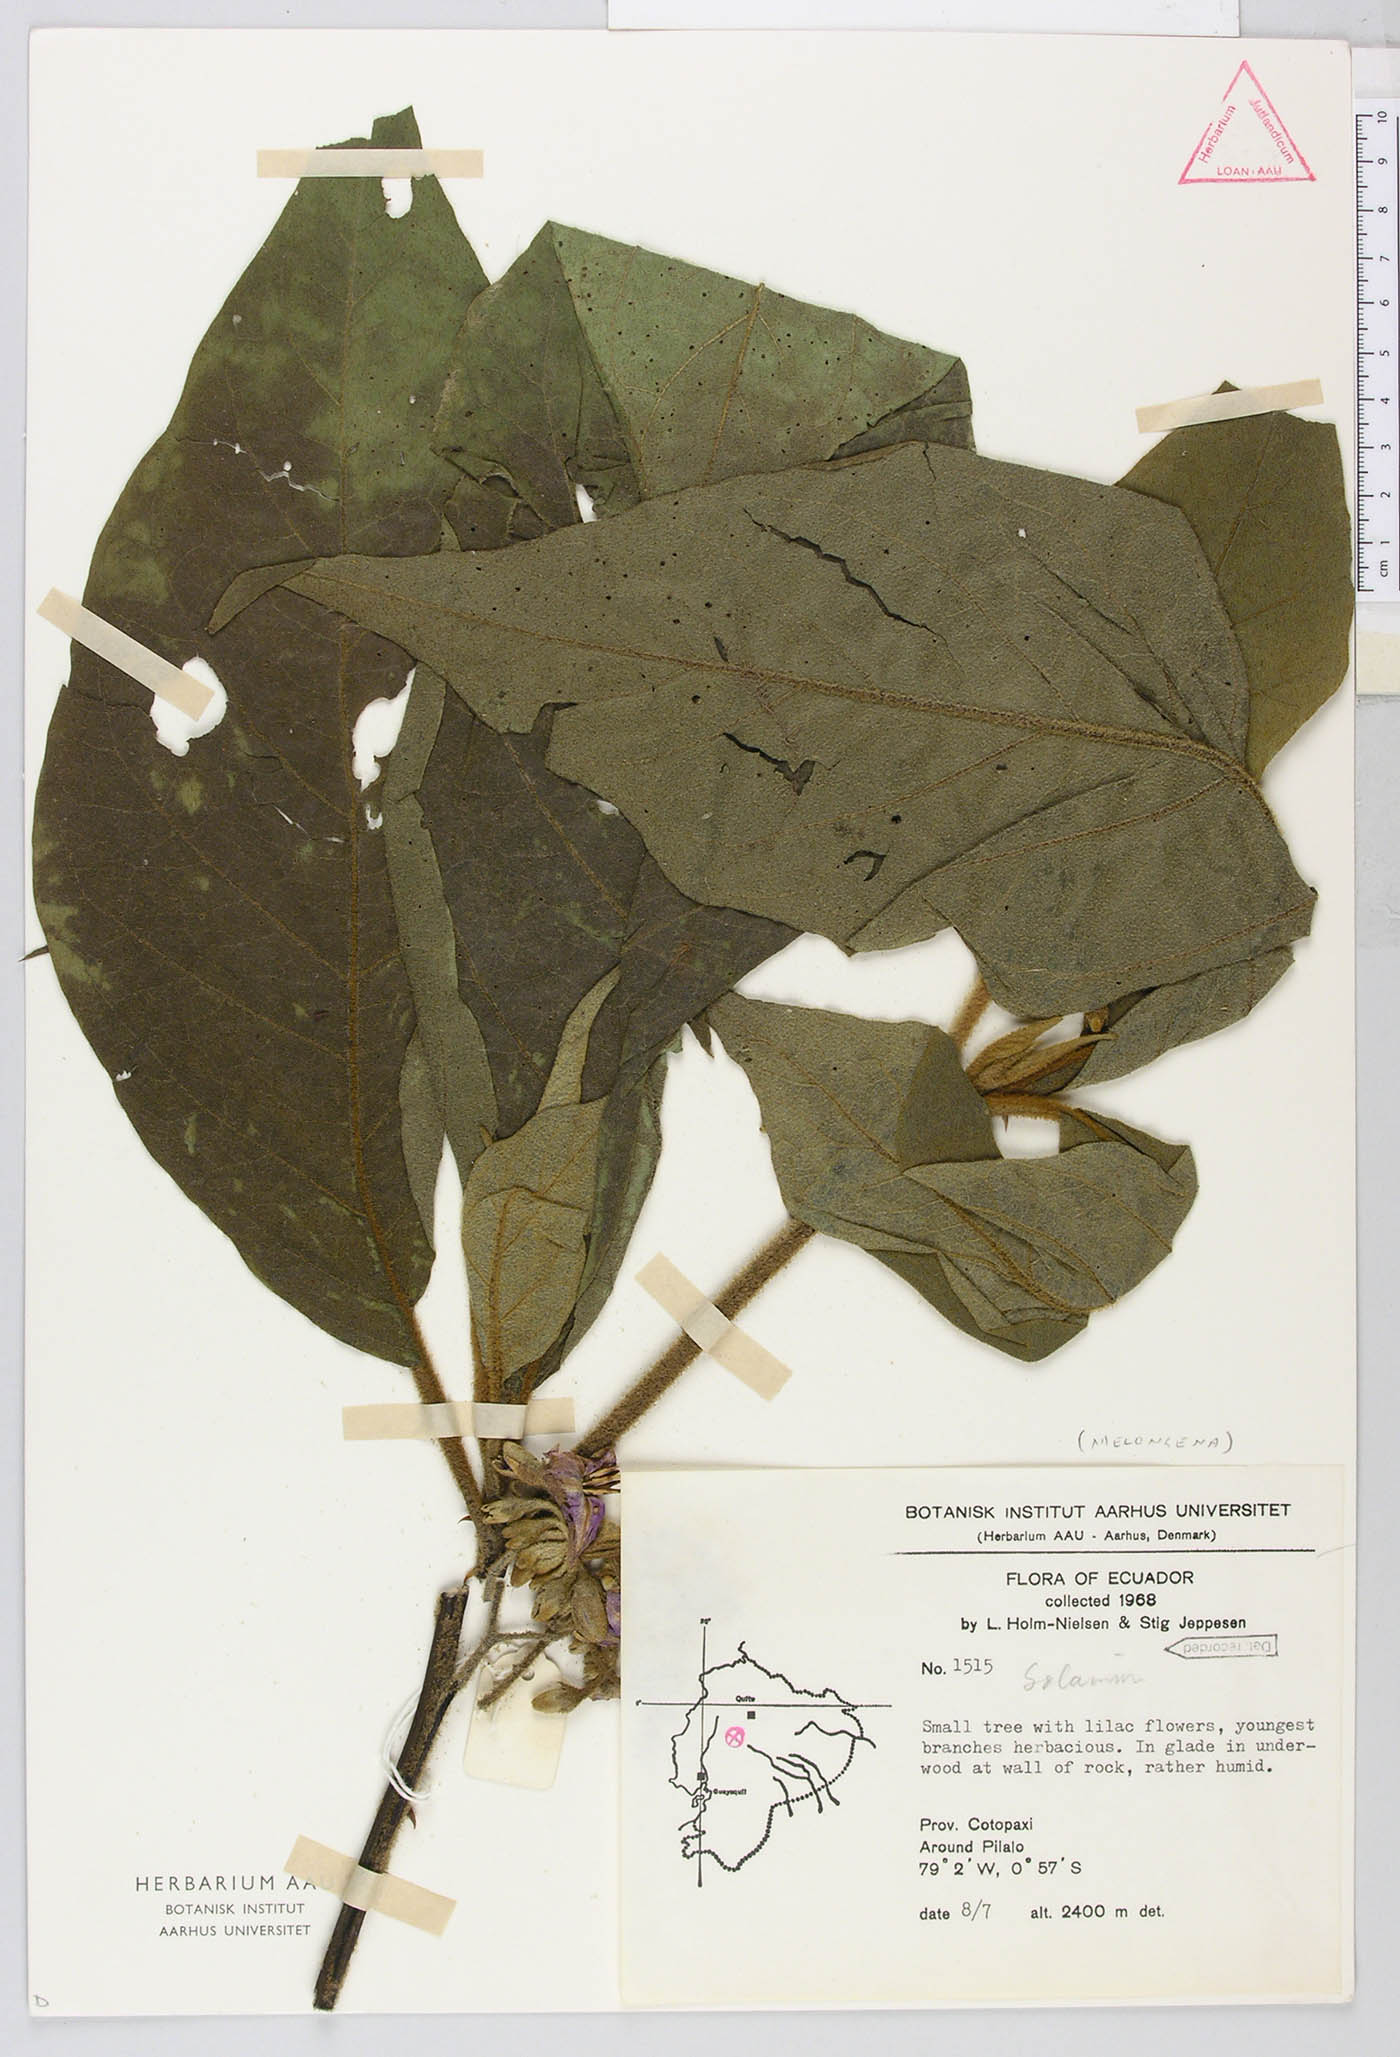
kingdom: Plantae
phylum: Tracheophyta
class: Magnoliopsida
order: Solanales
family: Solanaceae
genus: Solanum
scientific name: Solanum asperolanatum
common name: Devil's-fig
